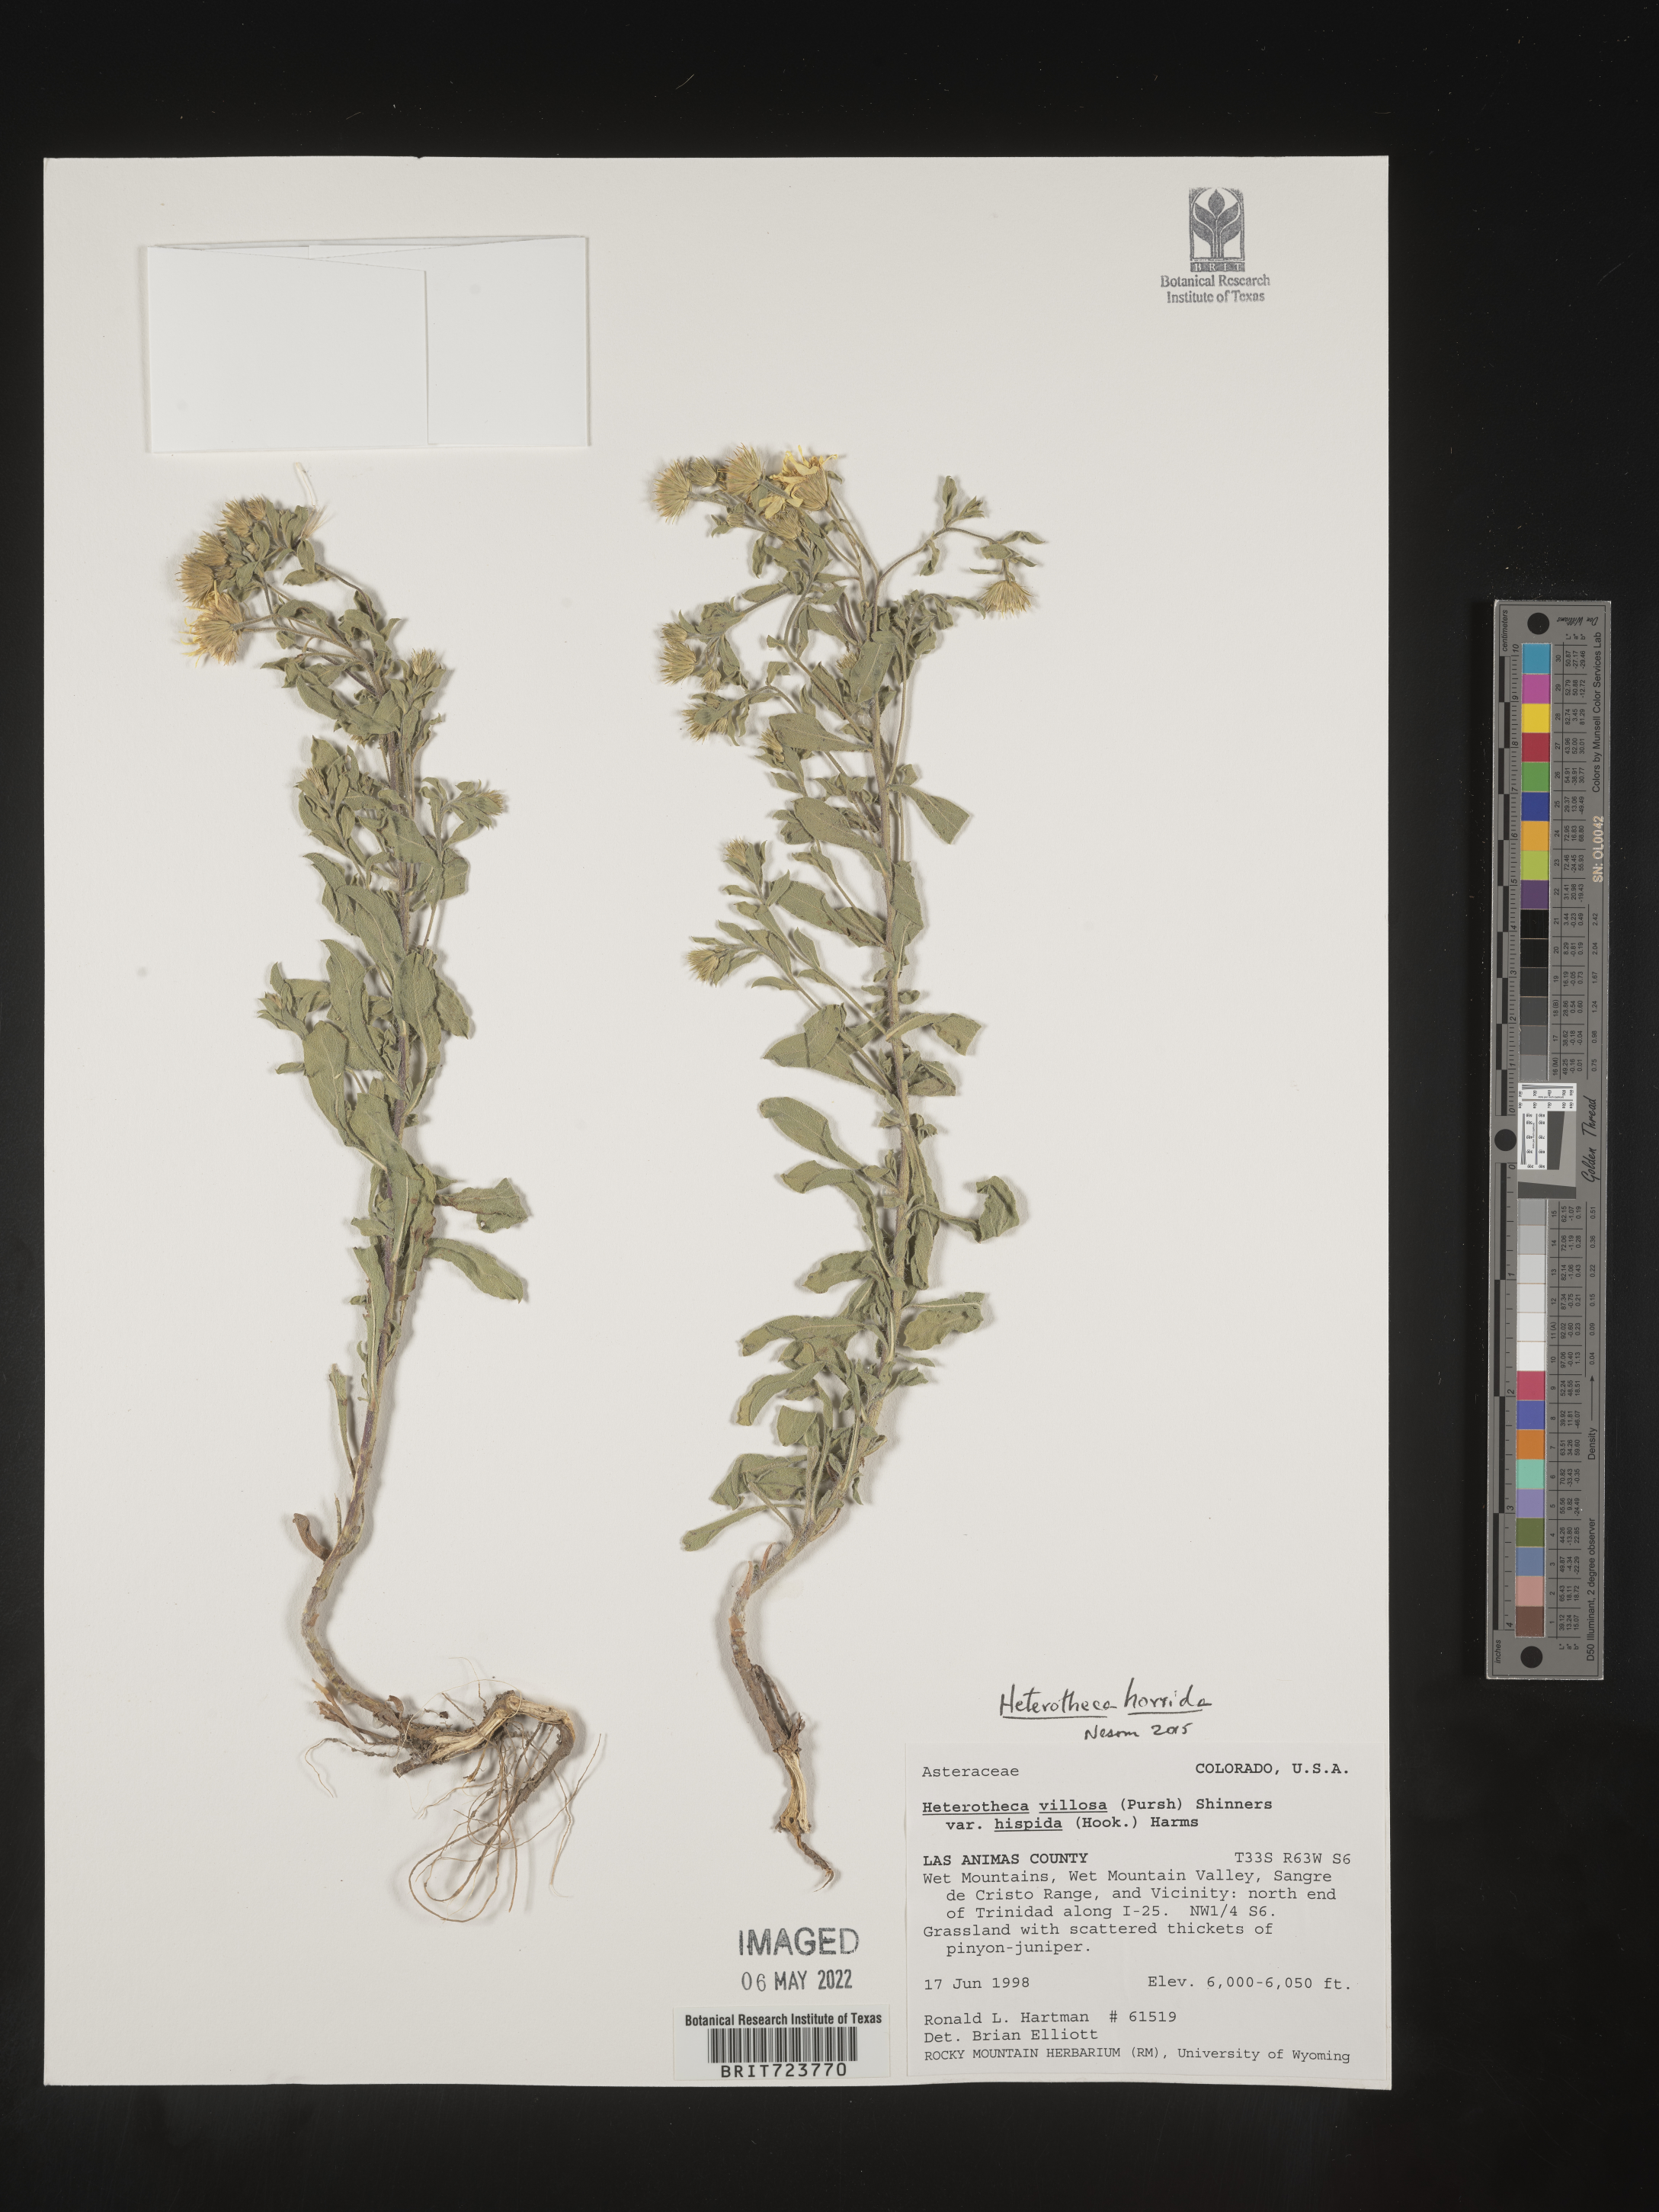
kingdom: Plantae
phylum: Tracheophyta
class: Magnoliopsida
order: Asterales
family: Asteraceae
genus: Heterotheca
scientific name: Heterotheca hirsutissima
